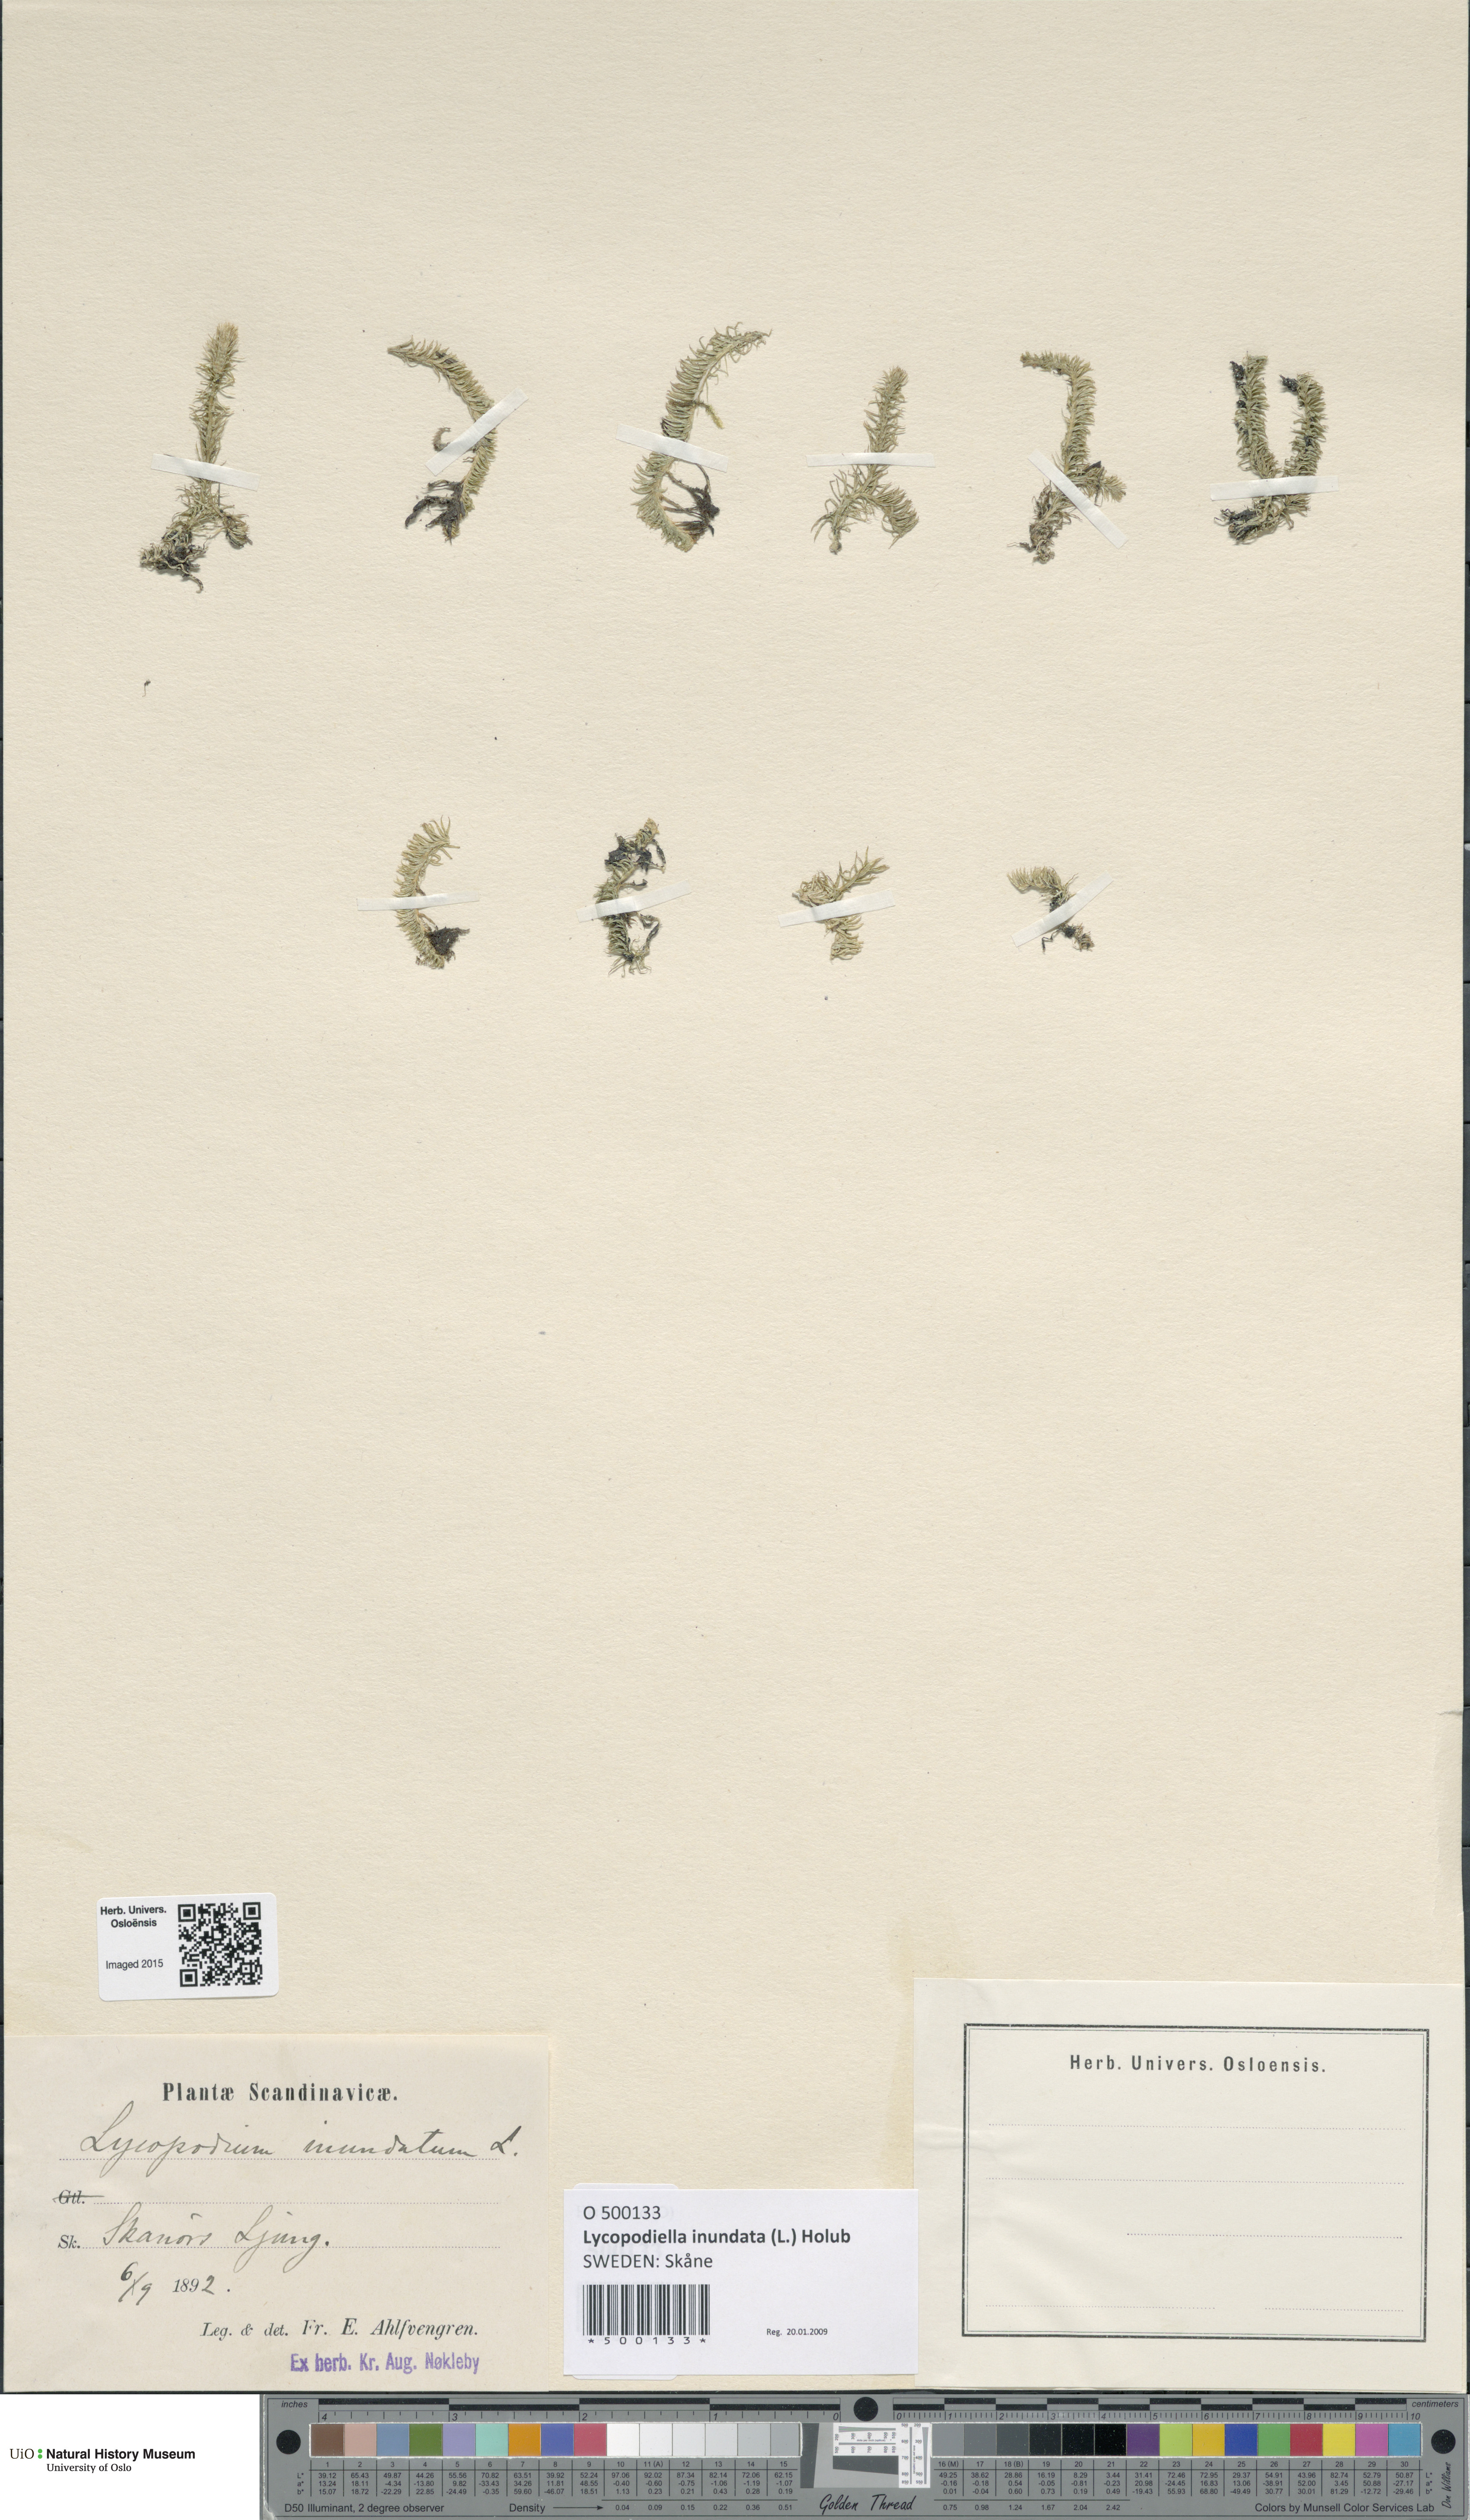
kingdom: Plantae
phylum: Tracheophyta
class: Lycopodiopsida
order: Lycopodiales
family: Lycopodiaceae
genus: Lycopodiella
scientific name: Lycopodiella inundata
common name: Marsh clubmoss
